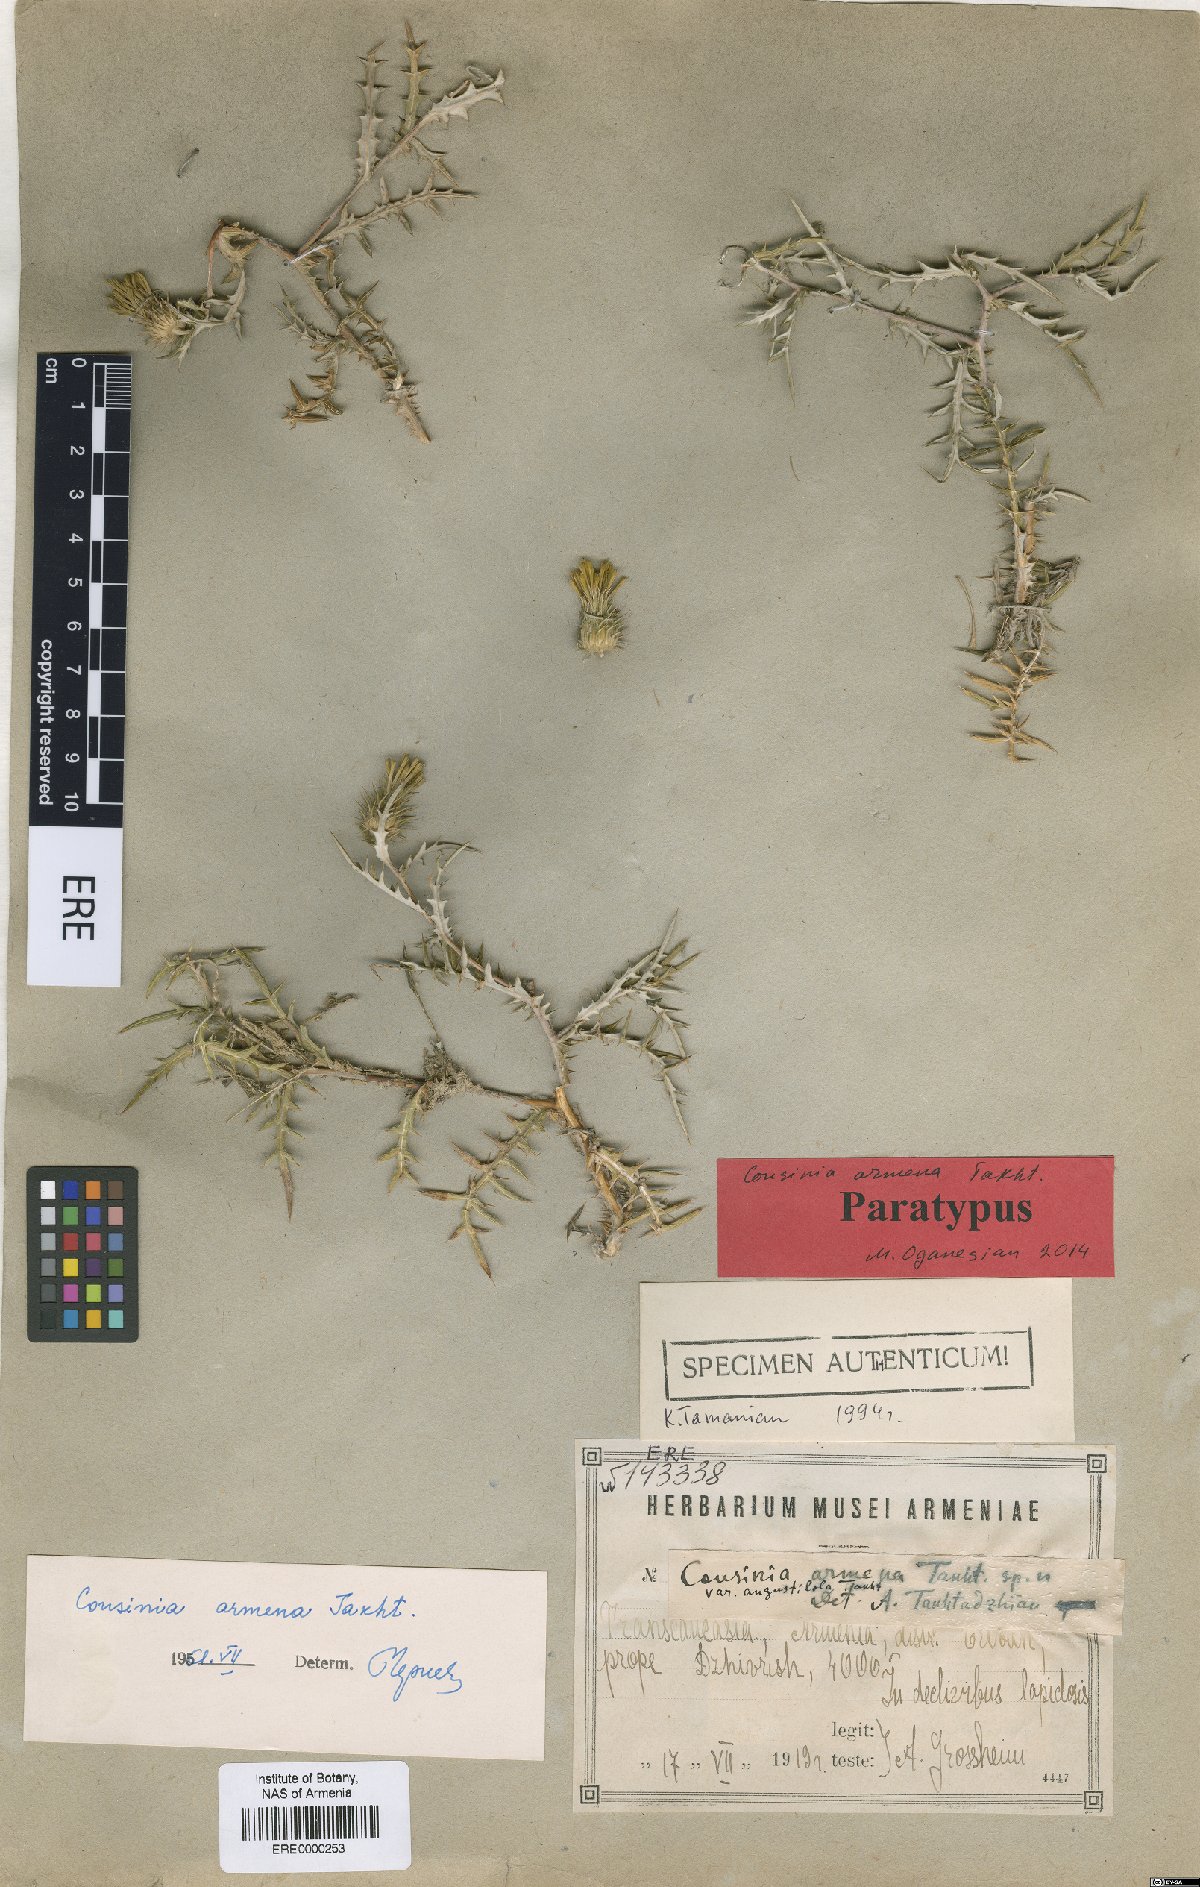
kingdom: Plantae
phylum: Tracheophyta
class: Magnoliopsida
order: Asterales
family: Asteraceae
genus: Cousinia
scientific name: Cousinia armena
